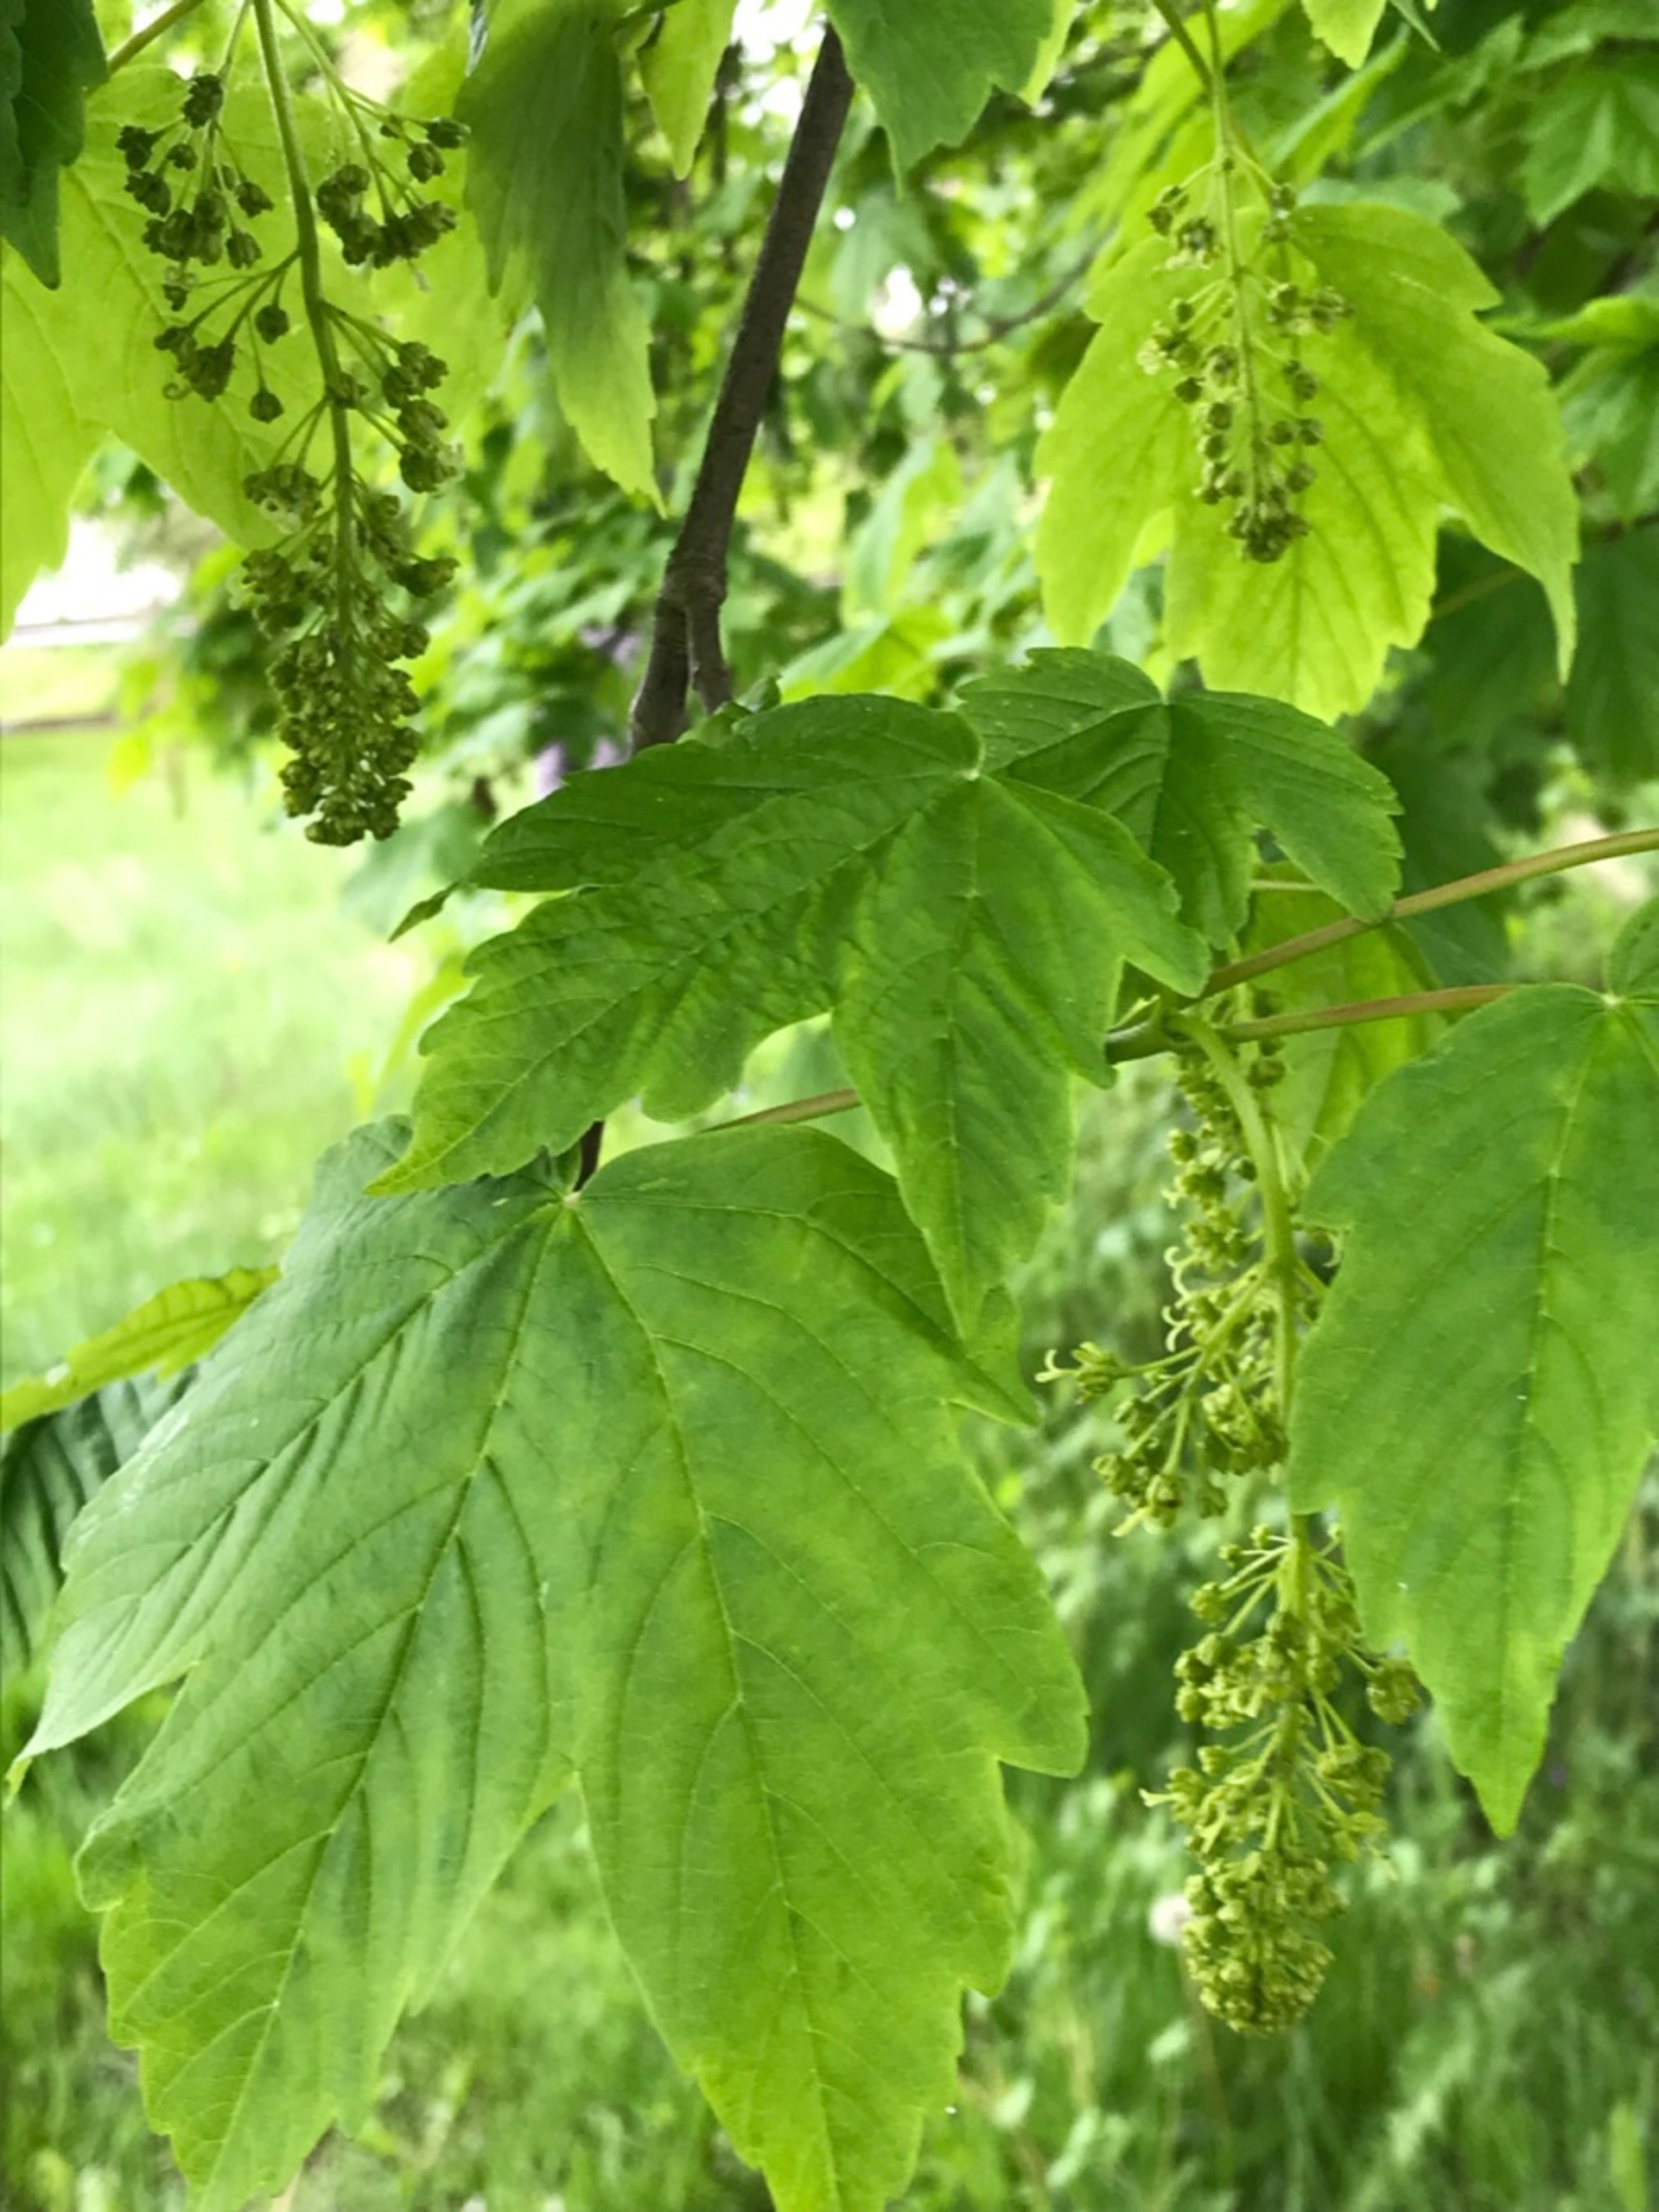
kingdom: Plantae
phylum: Tracheophyta
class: Magnoliopsida
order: Sapindales
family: Sapindaceae
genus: Acer
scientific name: Acer pseudoplatanus
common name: Ahorn
